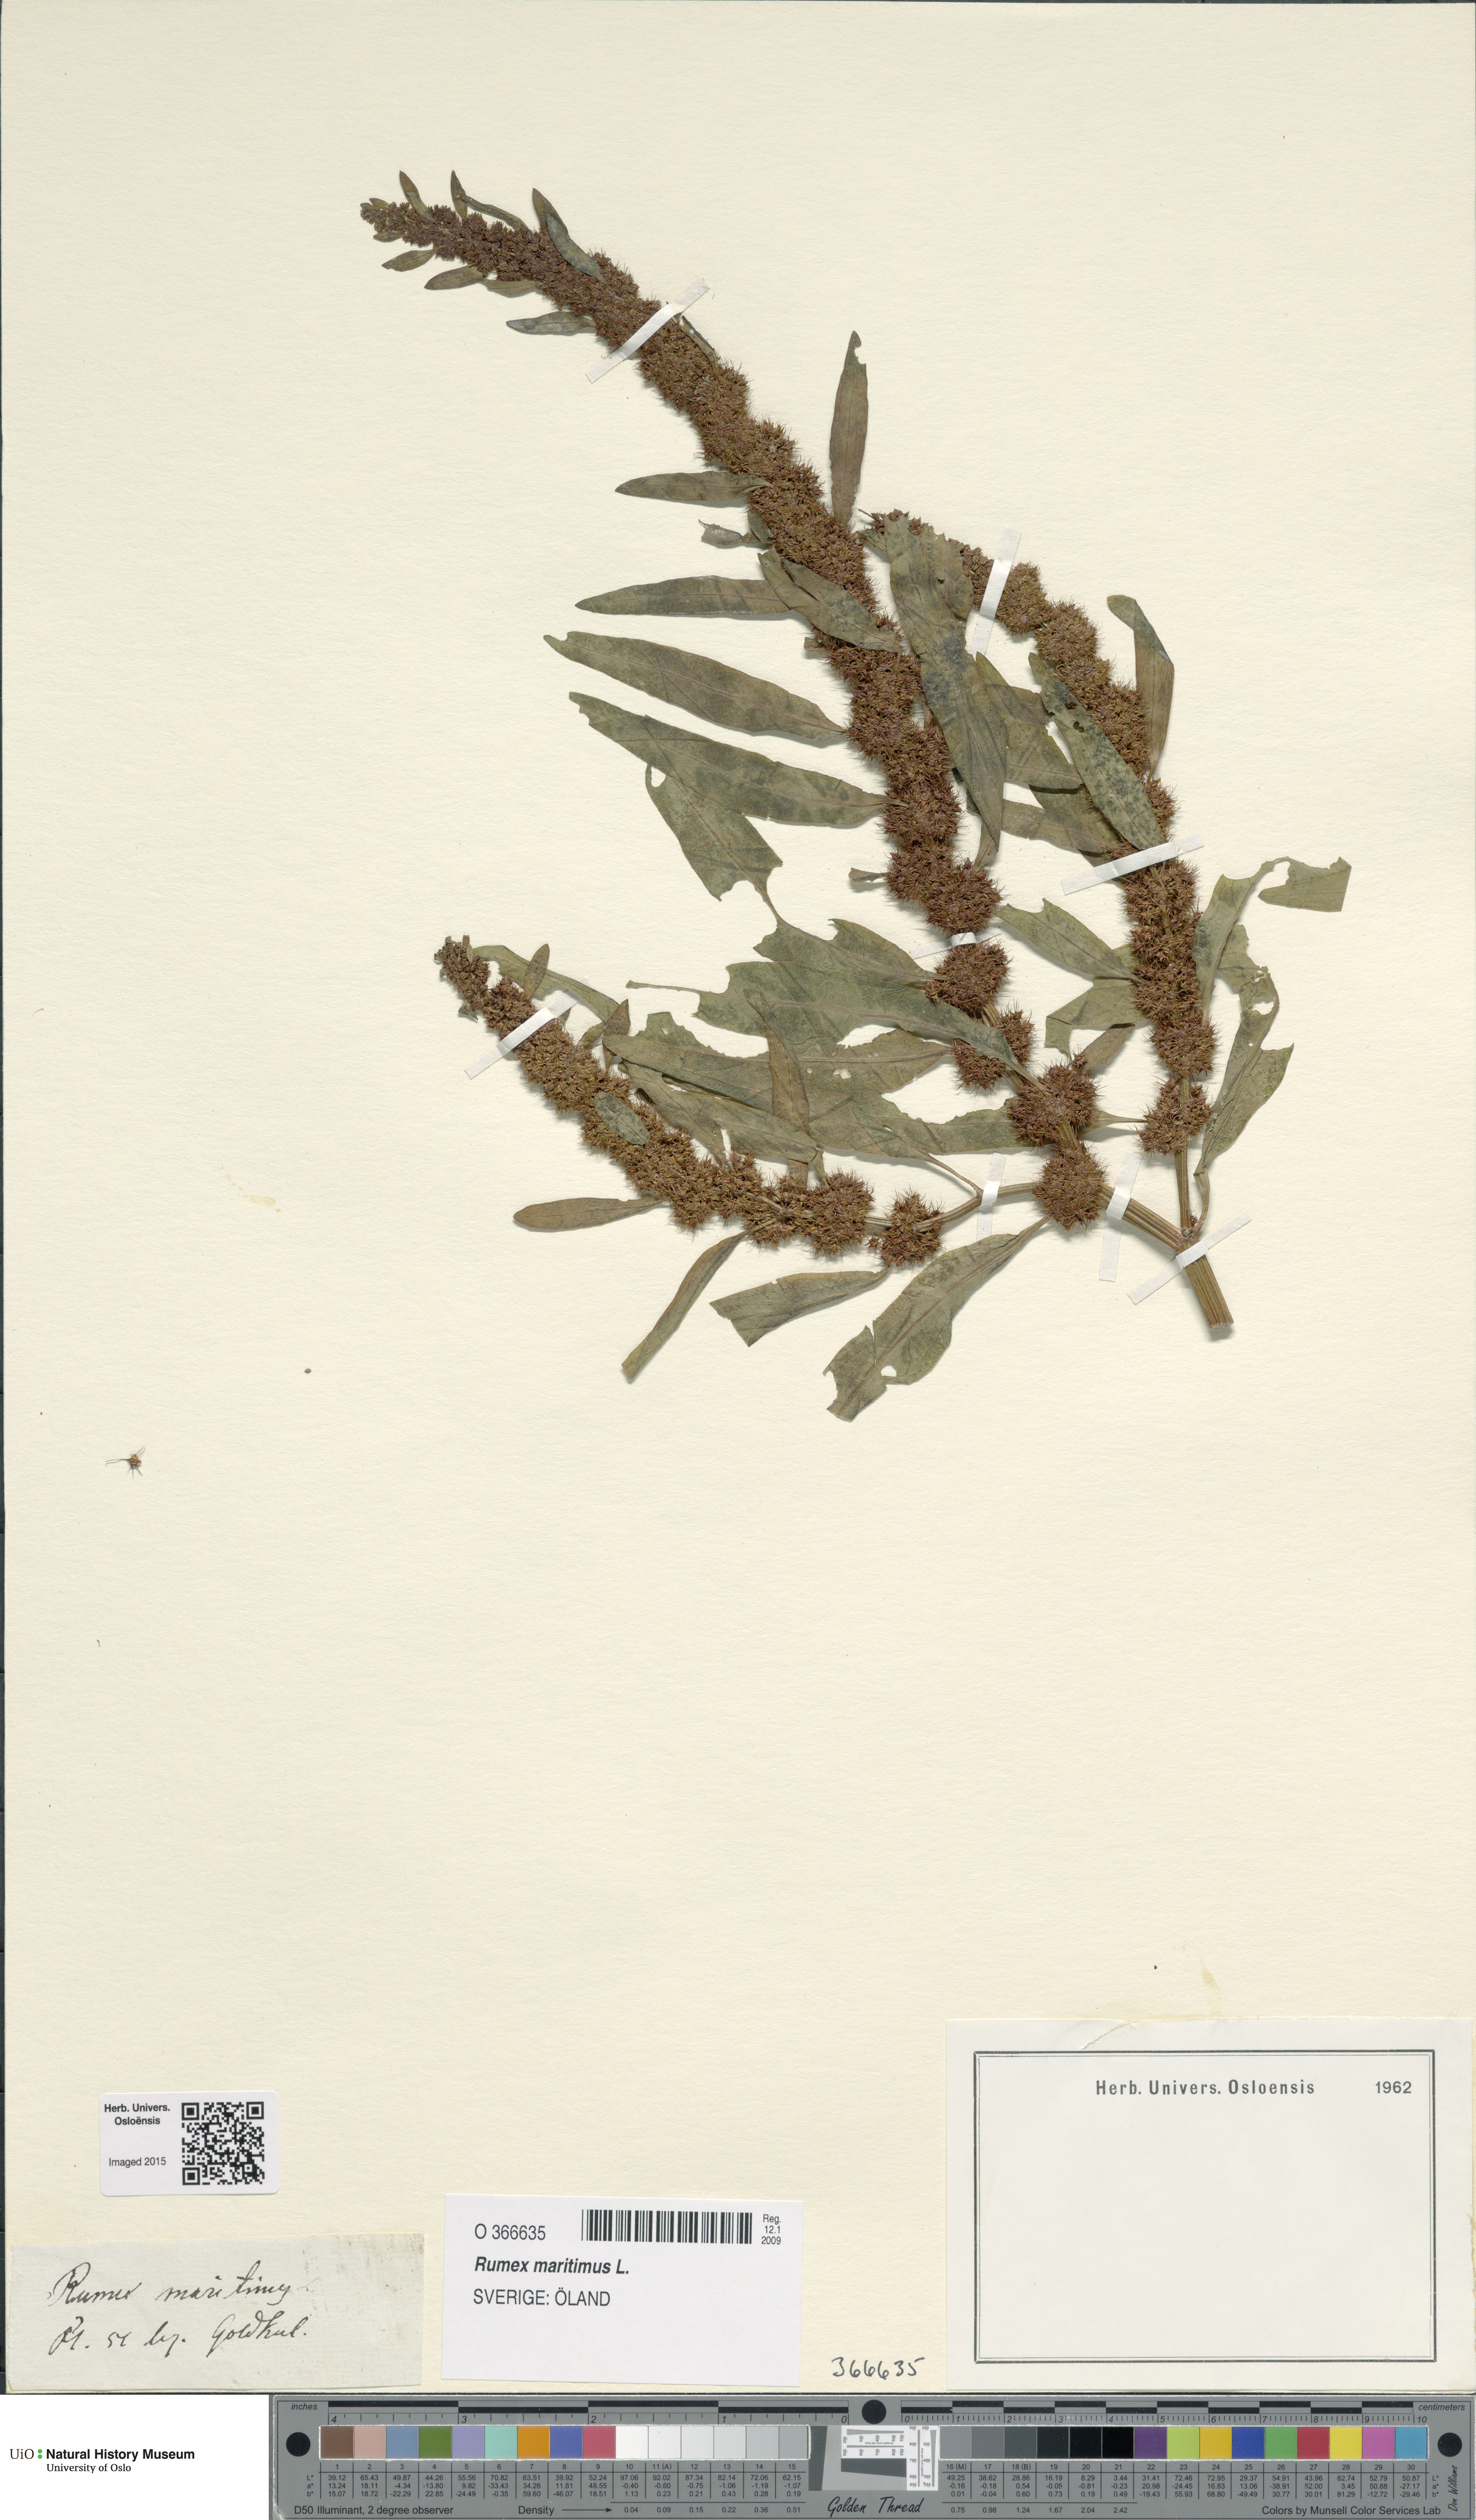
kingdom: Plantae
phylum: Tracheophyta
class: Magnoliopsida
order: Caryophyllales
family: Polygonaceae
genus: Rumex
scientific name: Rumex maritimus
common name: Golden dock
